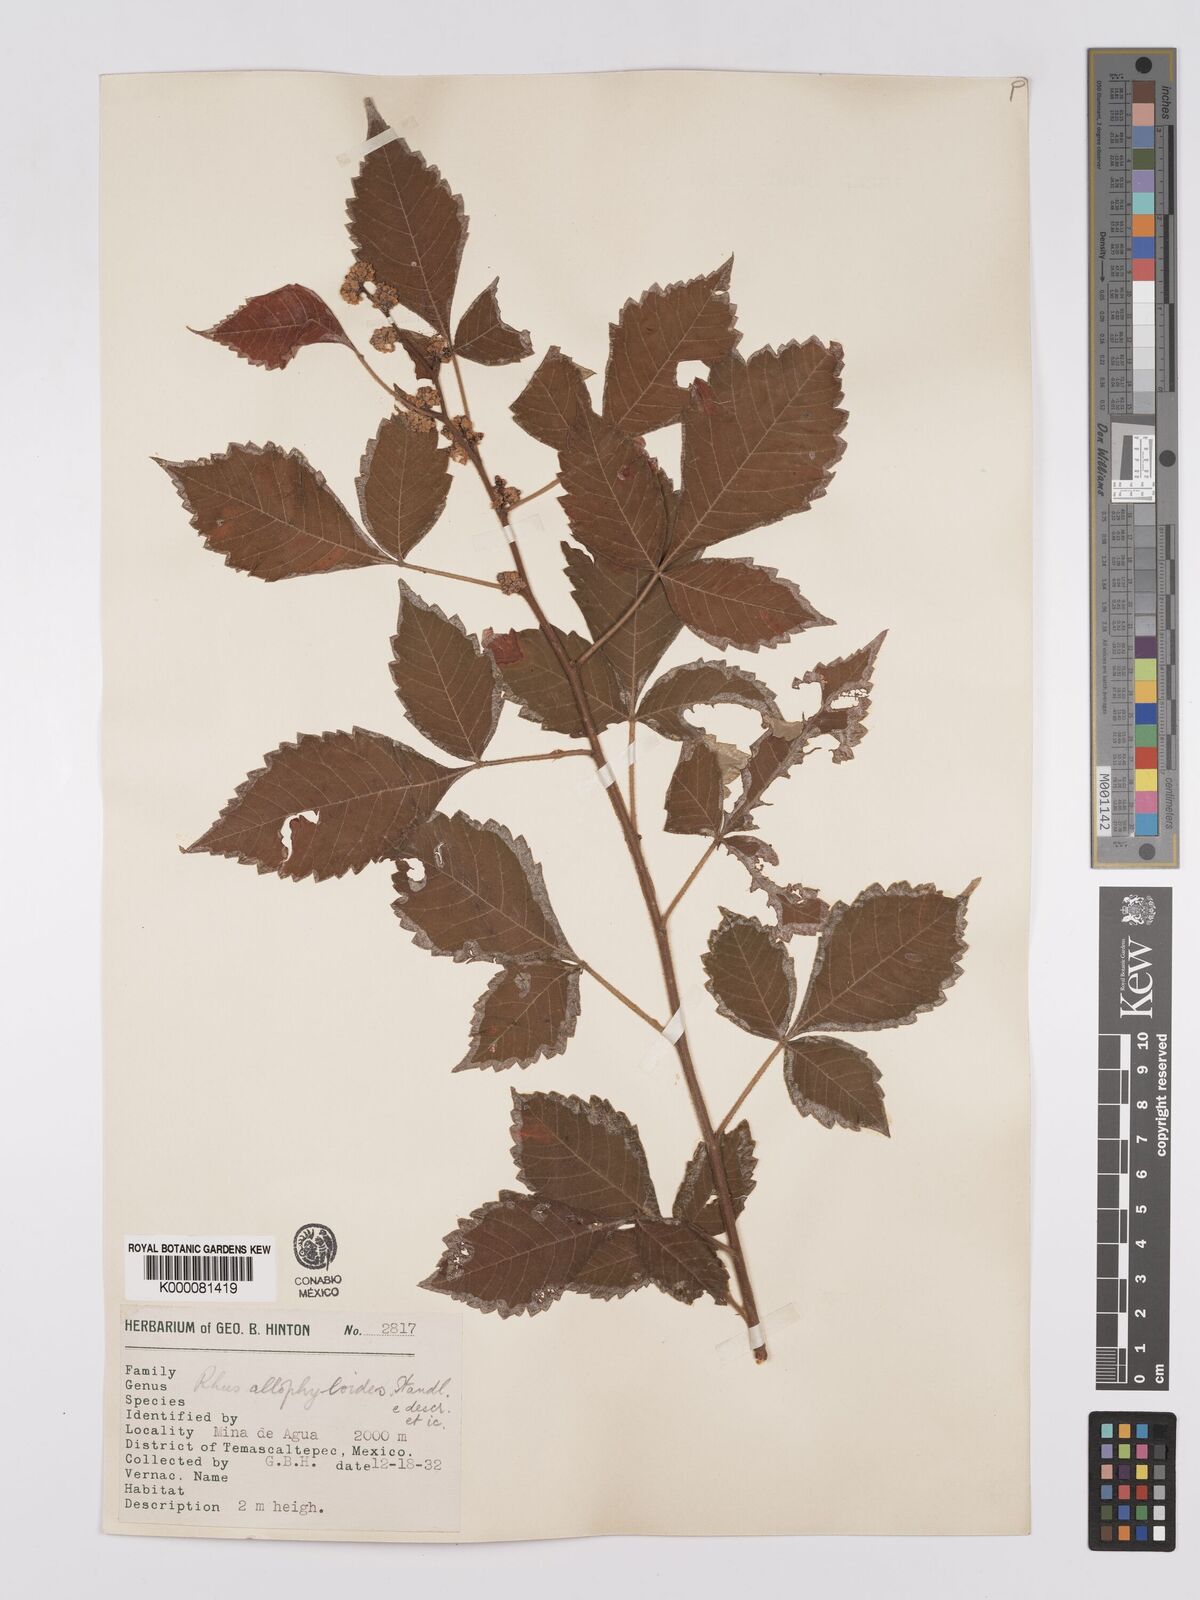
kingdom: Plantae
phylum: Tracheophyta
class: Magnoliopsida
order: Sapindales
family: Anacardiaceae
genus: Rhus
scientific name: Rhus allophyloides
